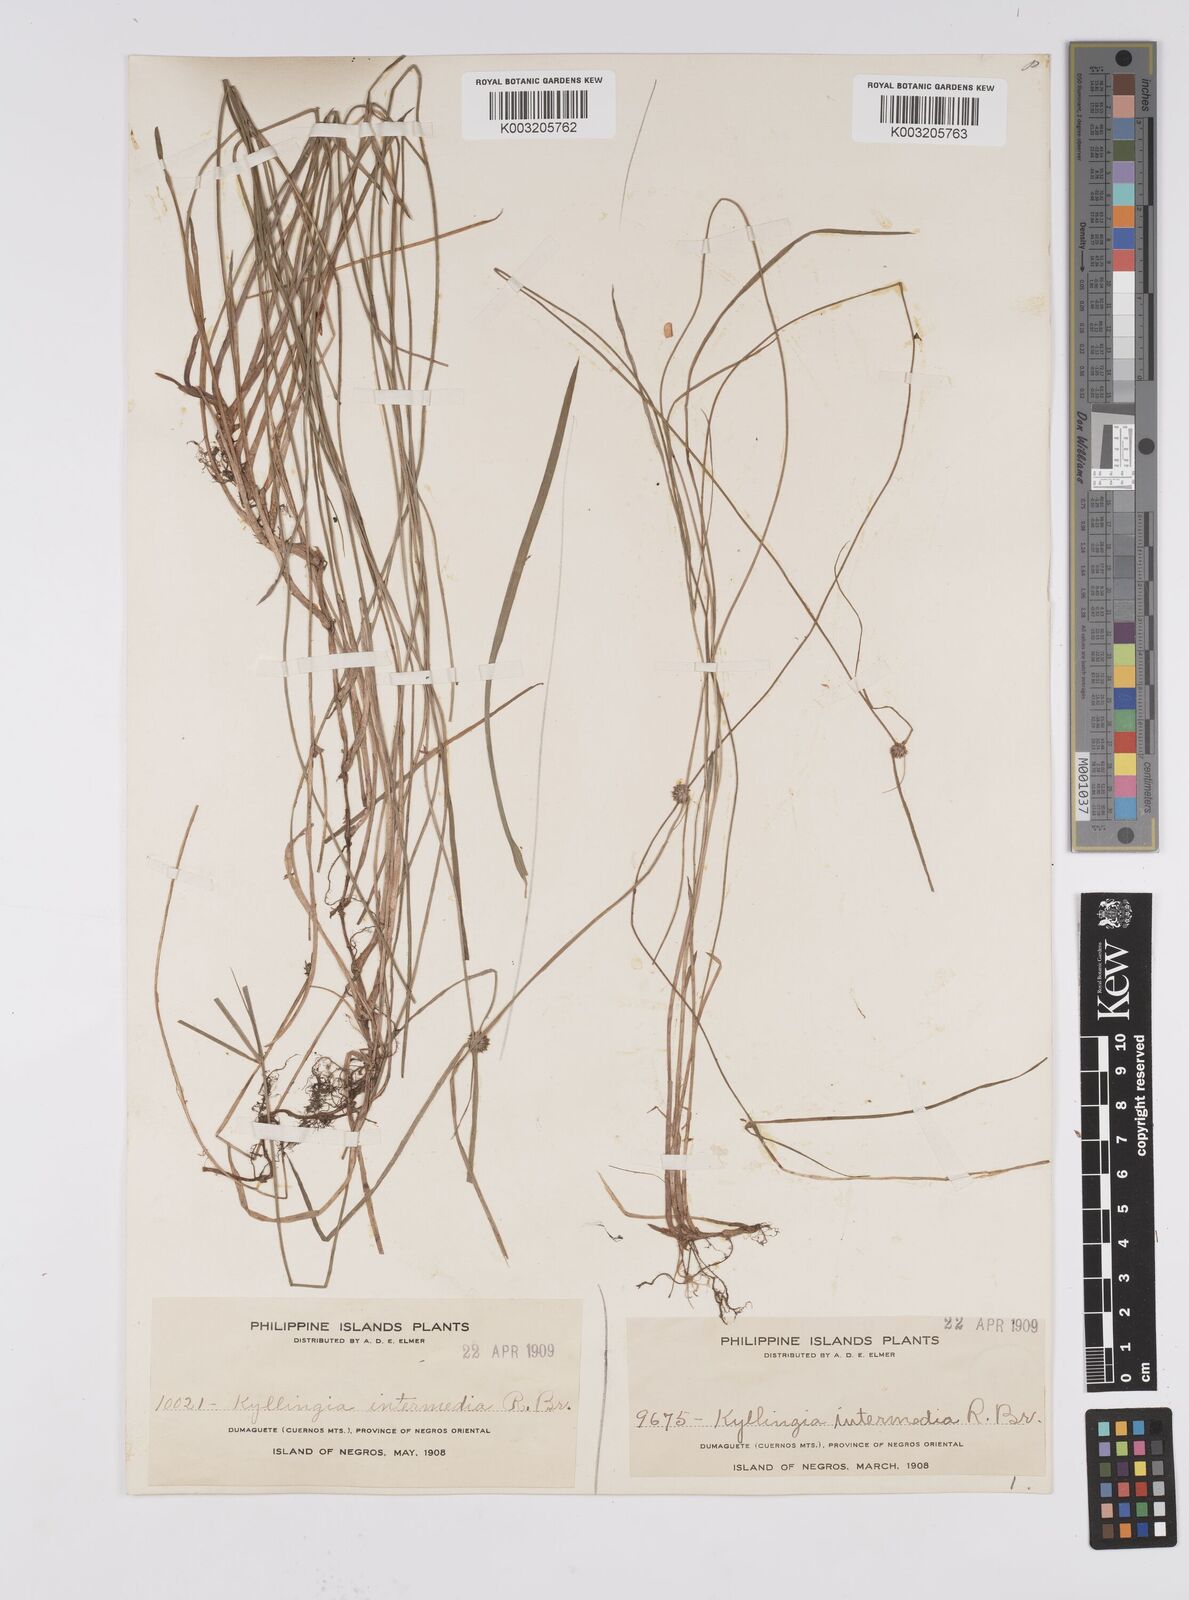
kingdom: Plantae
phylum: Tracheophyta
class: Liliopsida
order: Poales
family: Cyperaceae
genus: Cyperus
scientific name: Cyperus brevifolius
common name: Globe kyllinga
